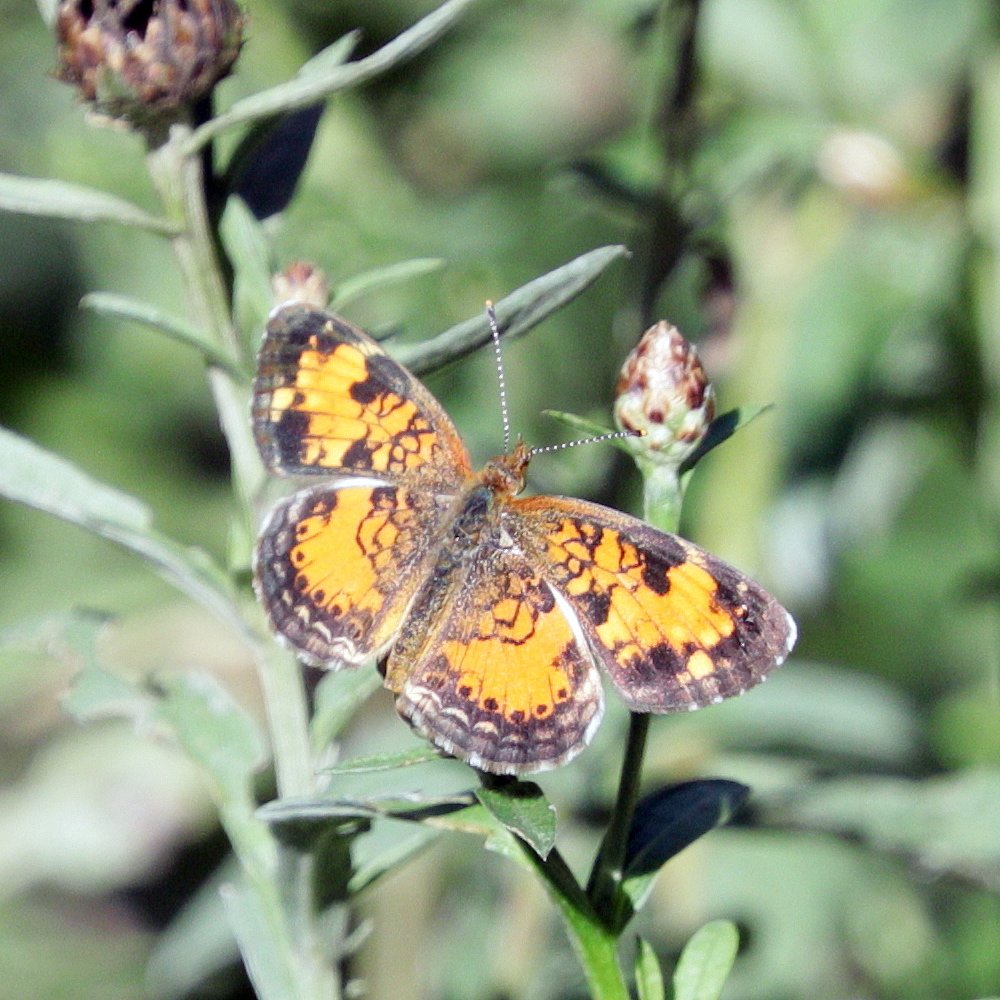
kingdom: Animalia
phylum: Arthropoda
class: Insecta
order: Lepidoptera
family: Nymphalidae
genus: Phyciodes
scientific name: Phyciodes tharos
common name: Northern Crescent
